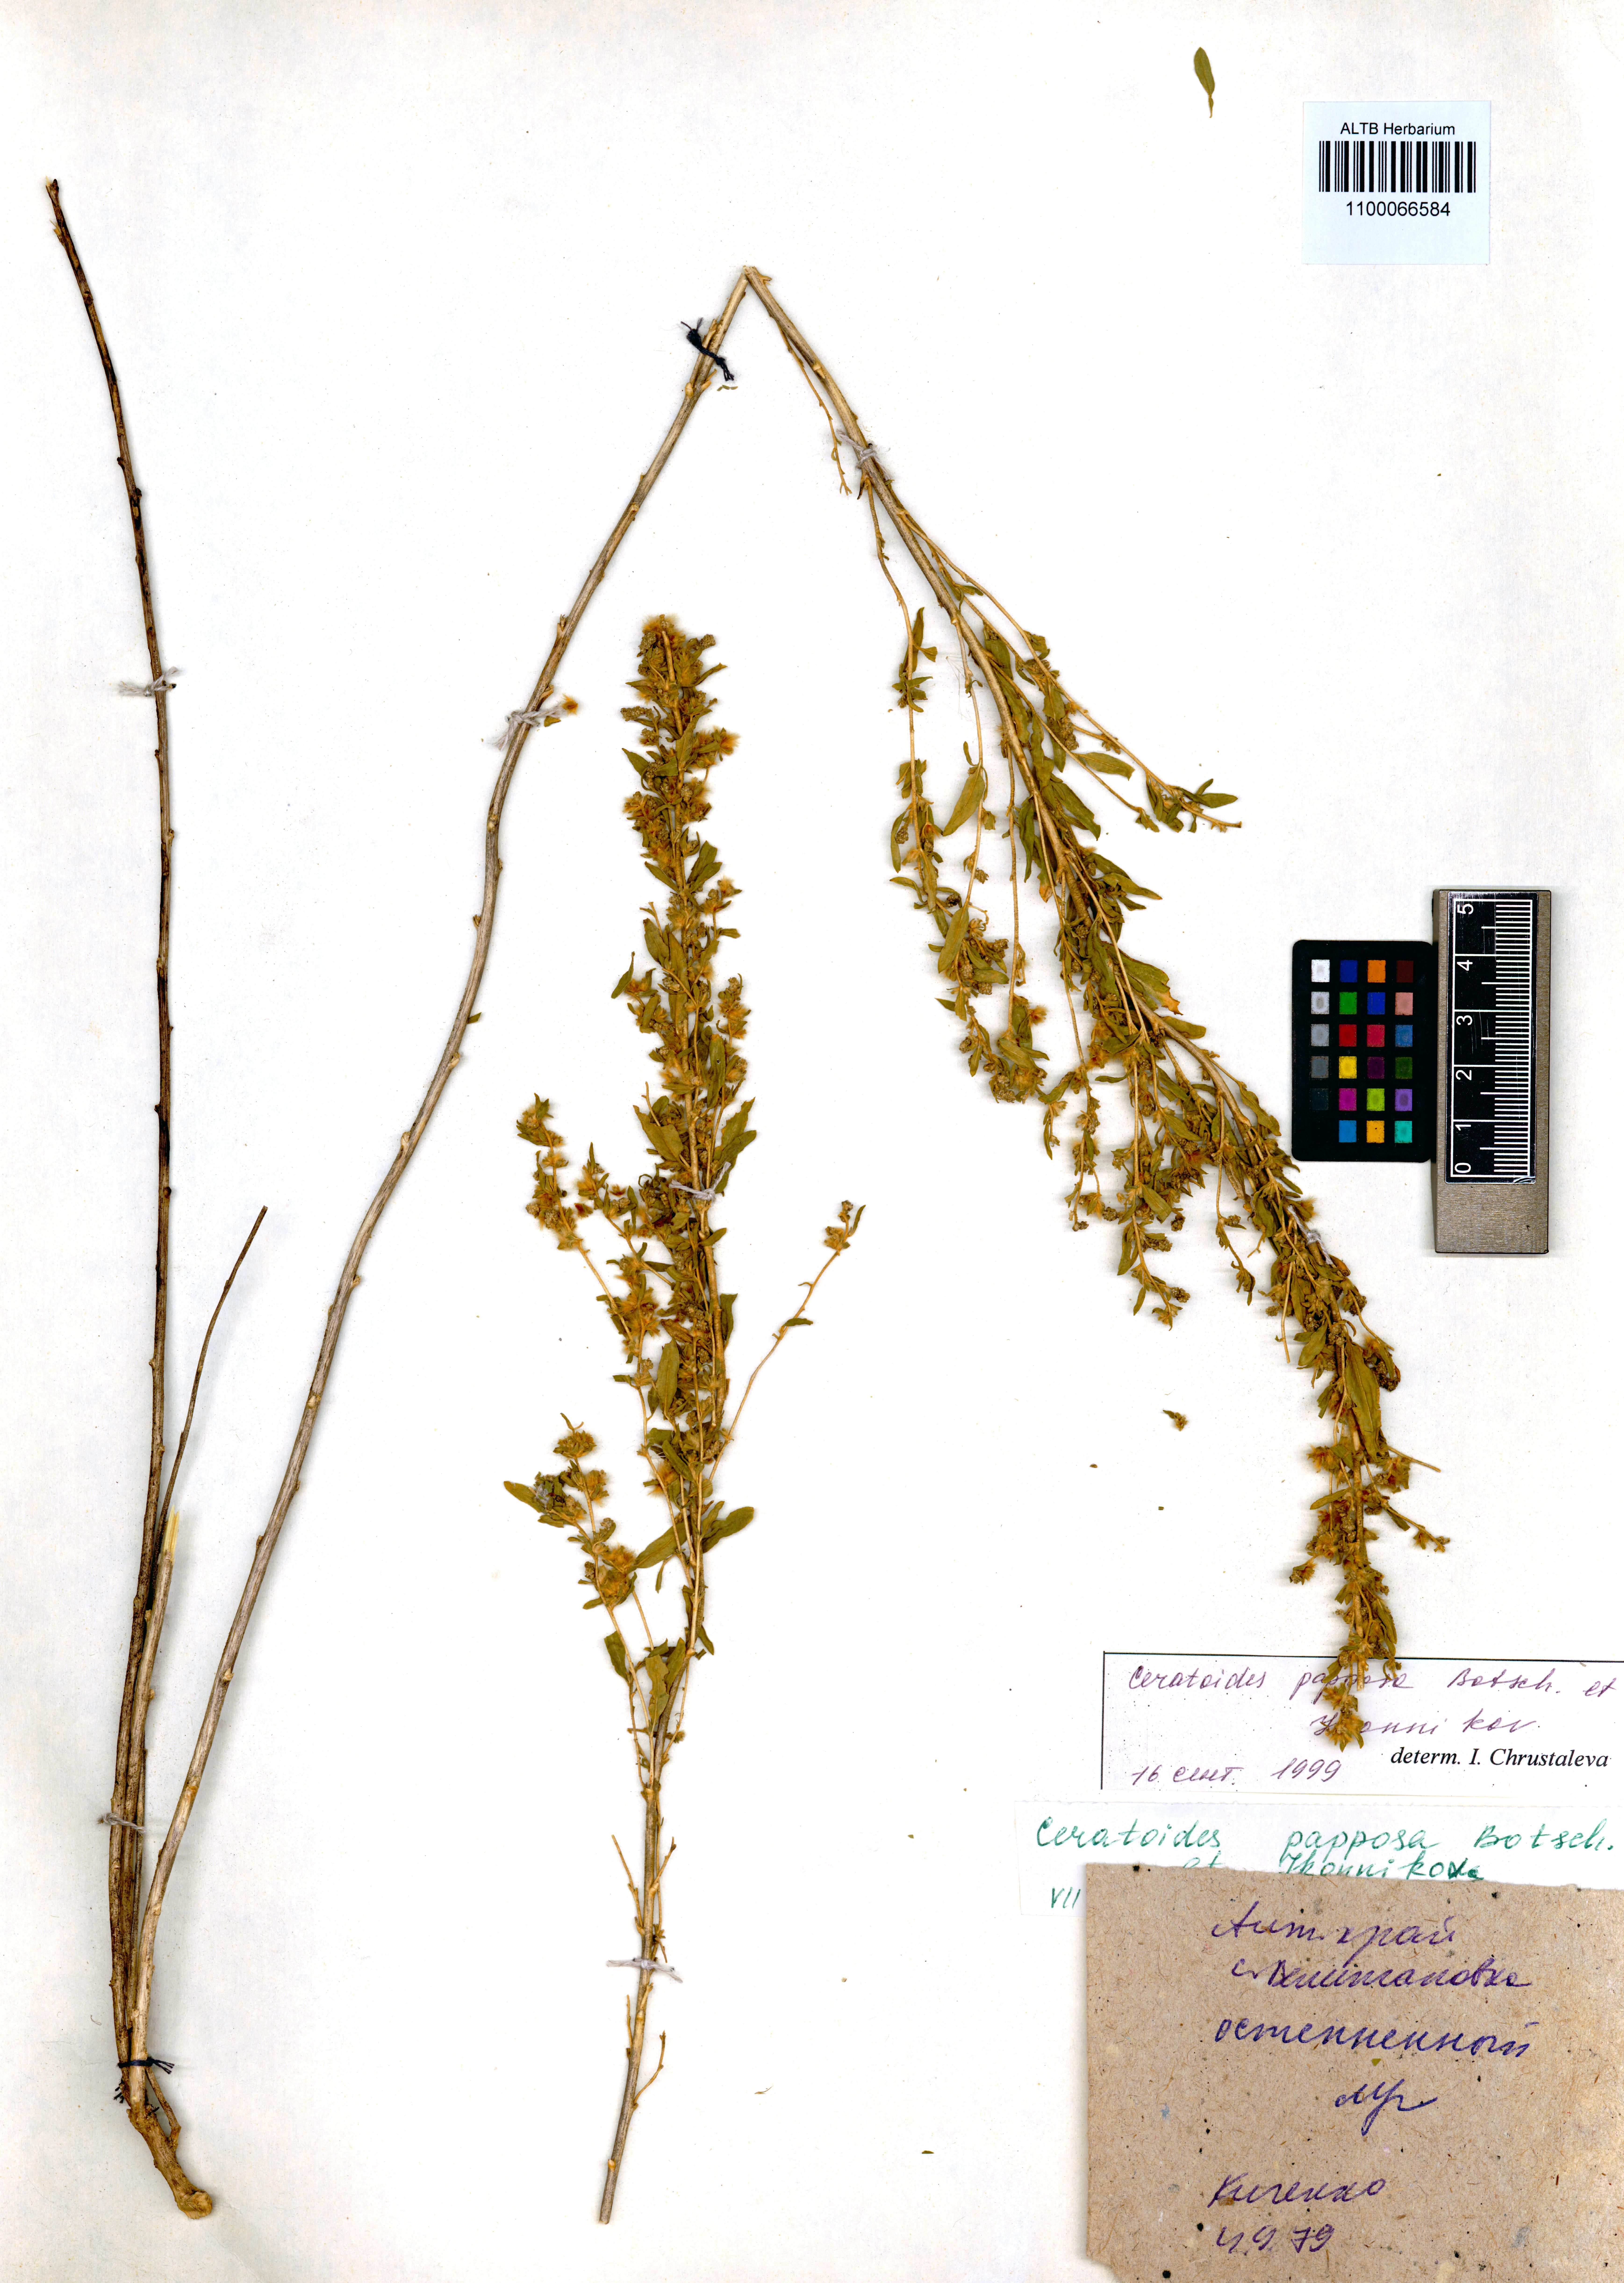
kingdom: Plantae
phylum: Tracheophyta
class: Magnoliopsida
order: Caryophyllales
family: Amaranthaceae
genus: Krascheninnikovia
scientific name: Krascheninnikovia ceratoides
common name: Pamirian winterfat
